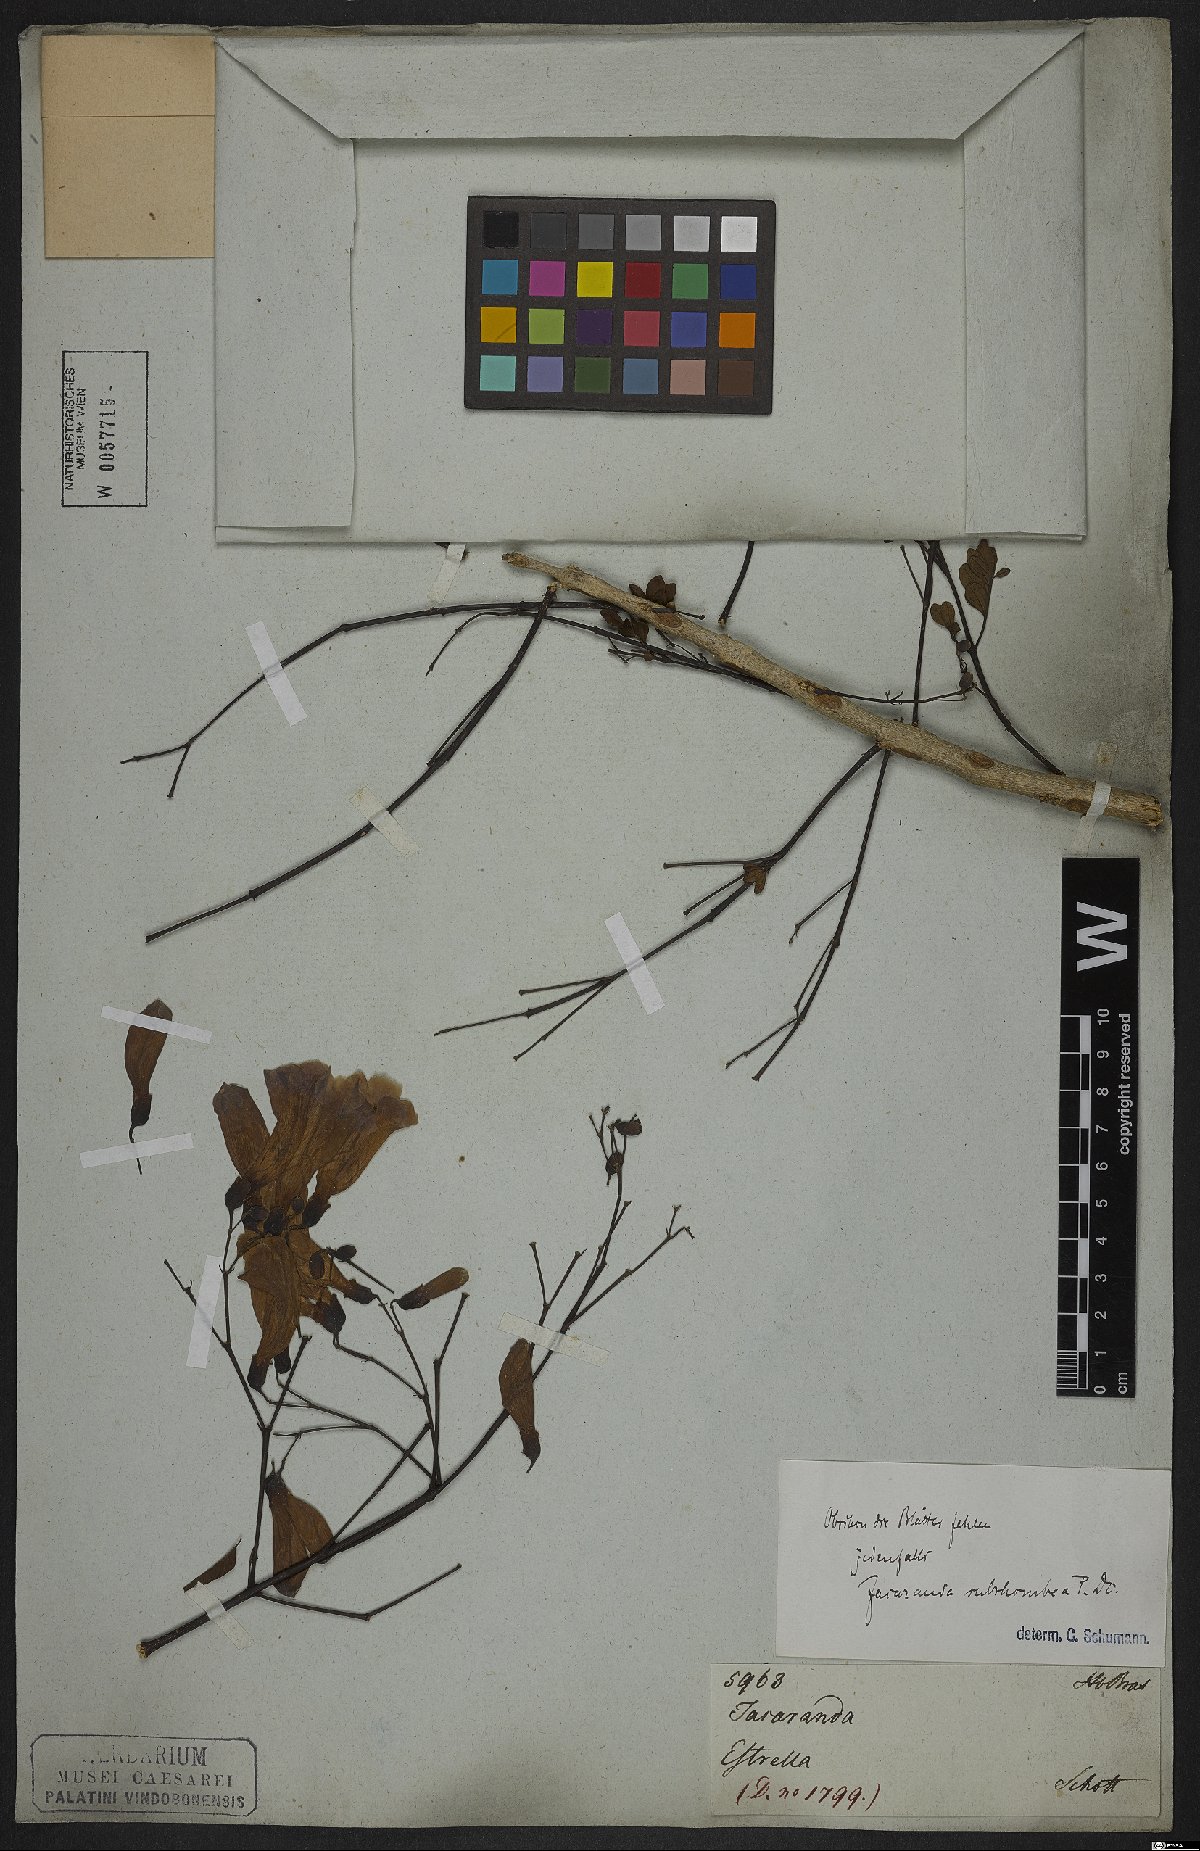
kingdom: Plantae
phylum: Tracheophyta
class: Magnoliopsida
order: Lamiales
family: Bignoniaceae
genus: Jacaranda
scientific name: Jacaranda puberula
